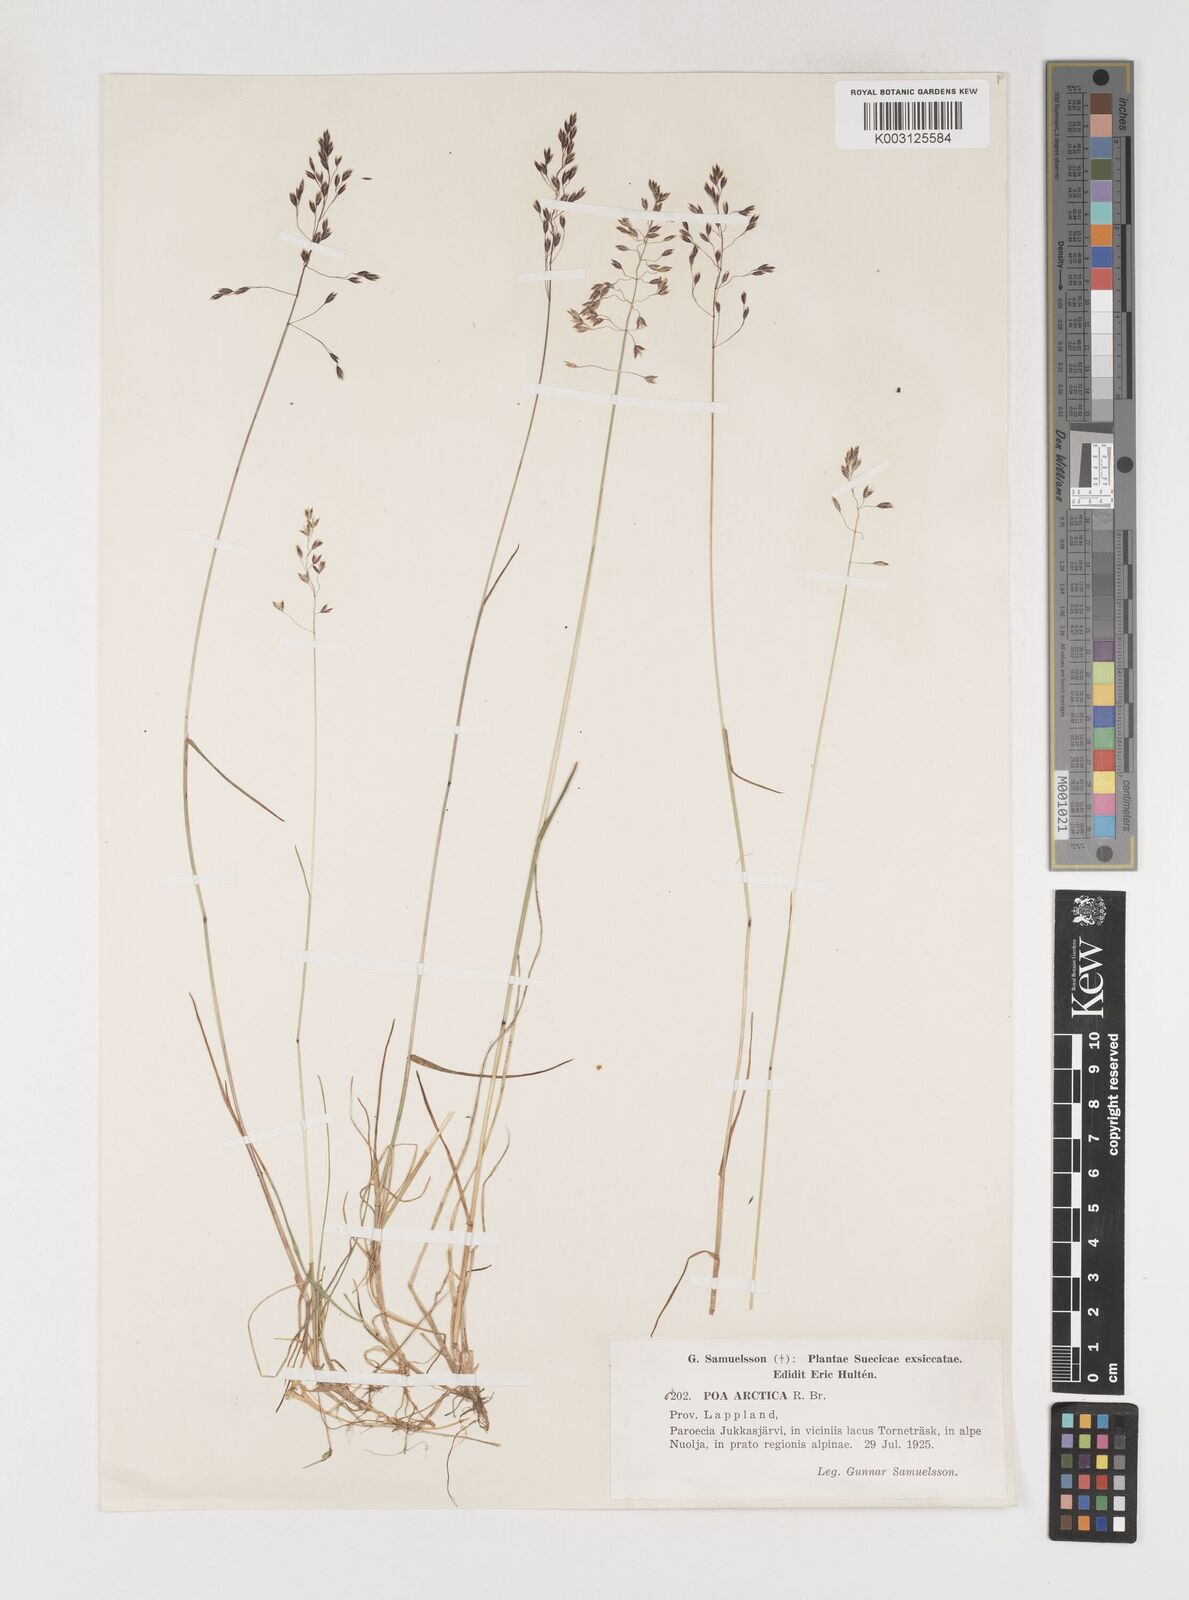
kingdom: Plantae
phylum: Tracheophyta
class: Liliopsida
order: Poales
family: Poaceae
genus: Poa
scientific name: Poa arctica
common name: Arctic bluegrass
